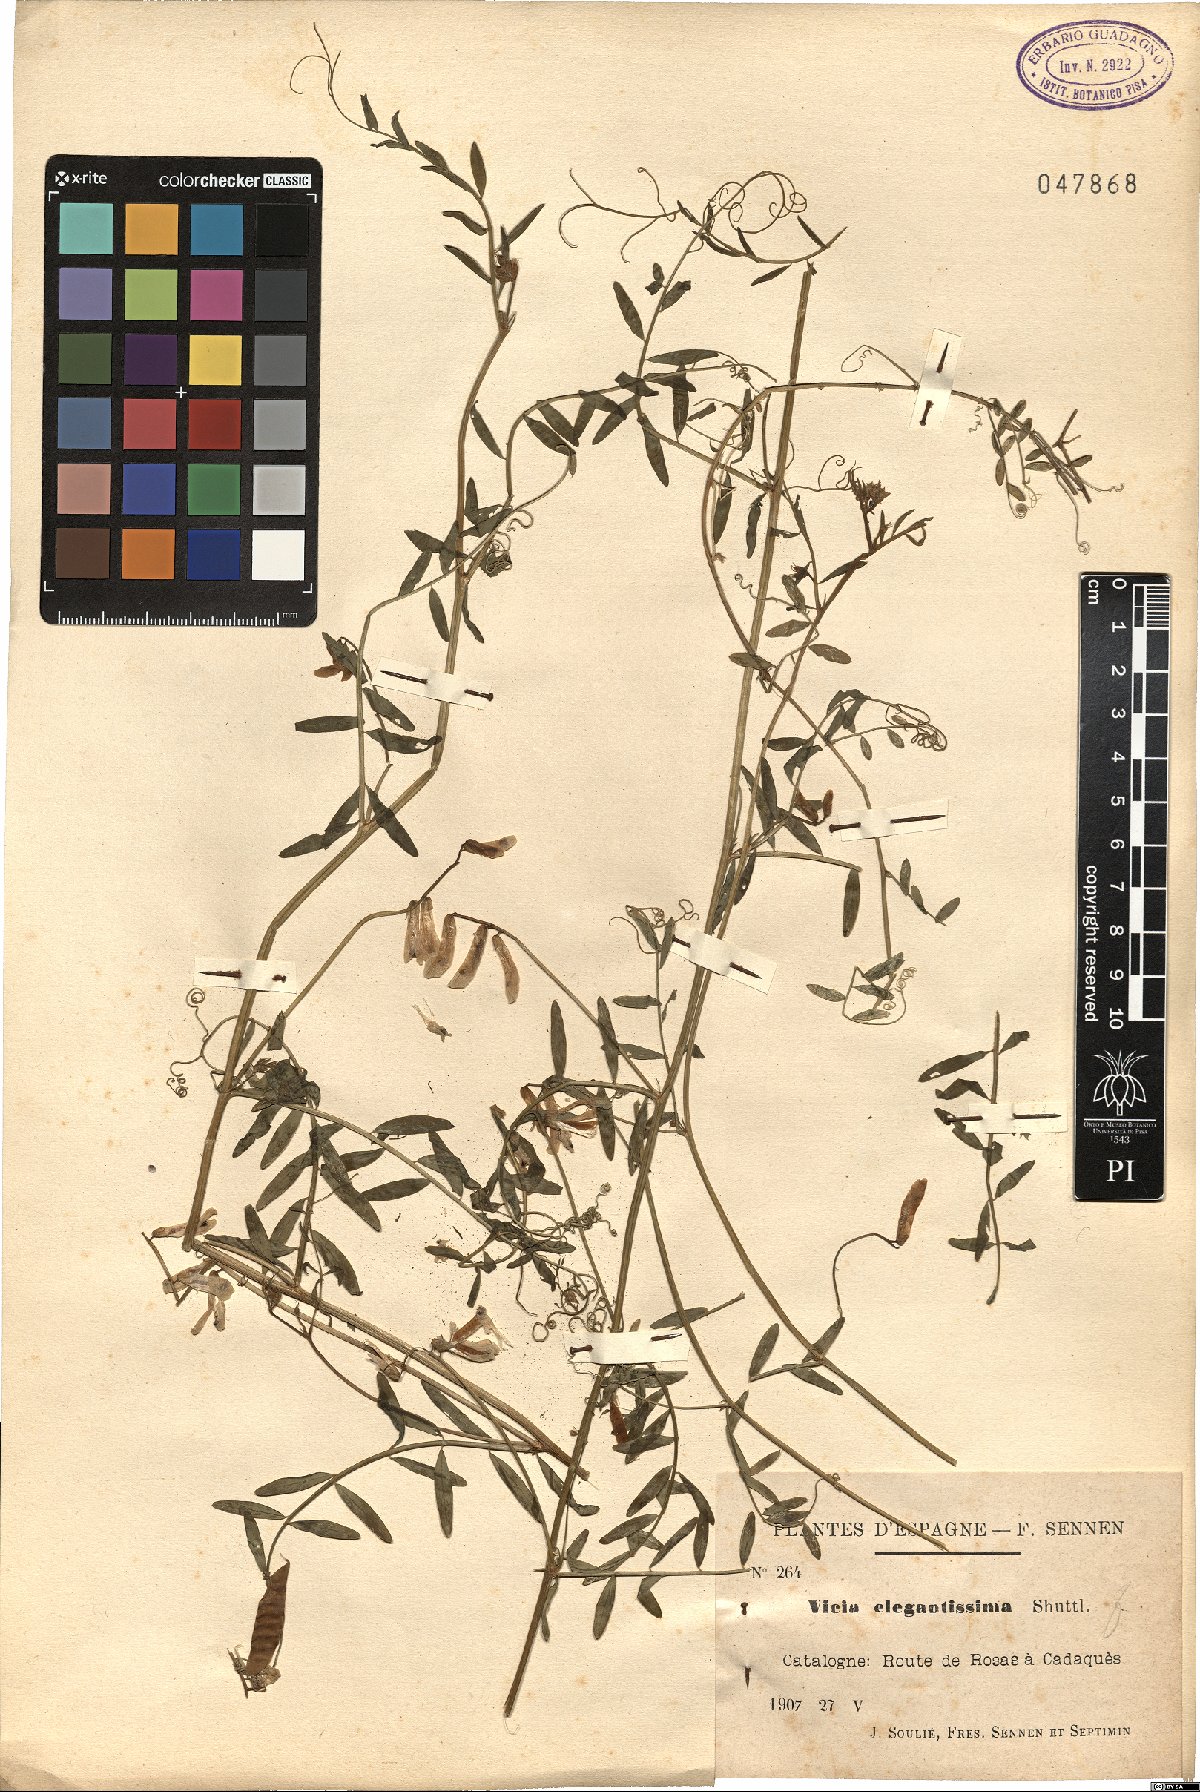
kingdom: Plantae
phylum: Tracheophyta
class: Magnoliopsida
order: Fabales
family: Fabaceae
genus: Vicia
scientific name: Vicia villosa
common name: Fodder vetch
